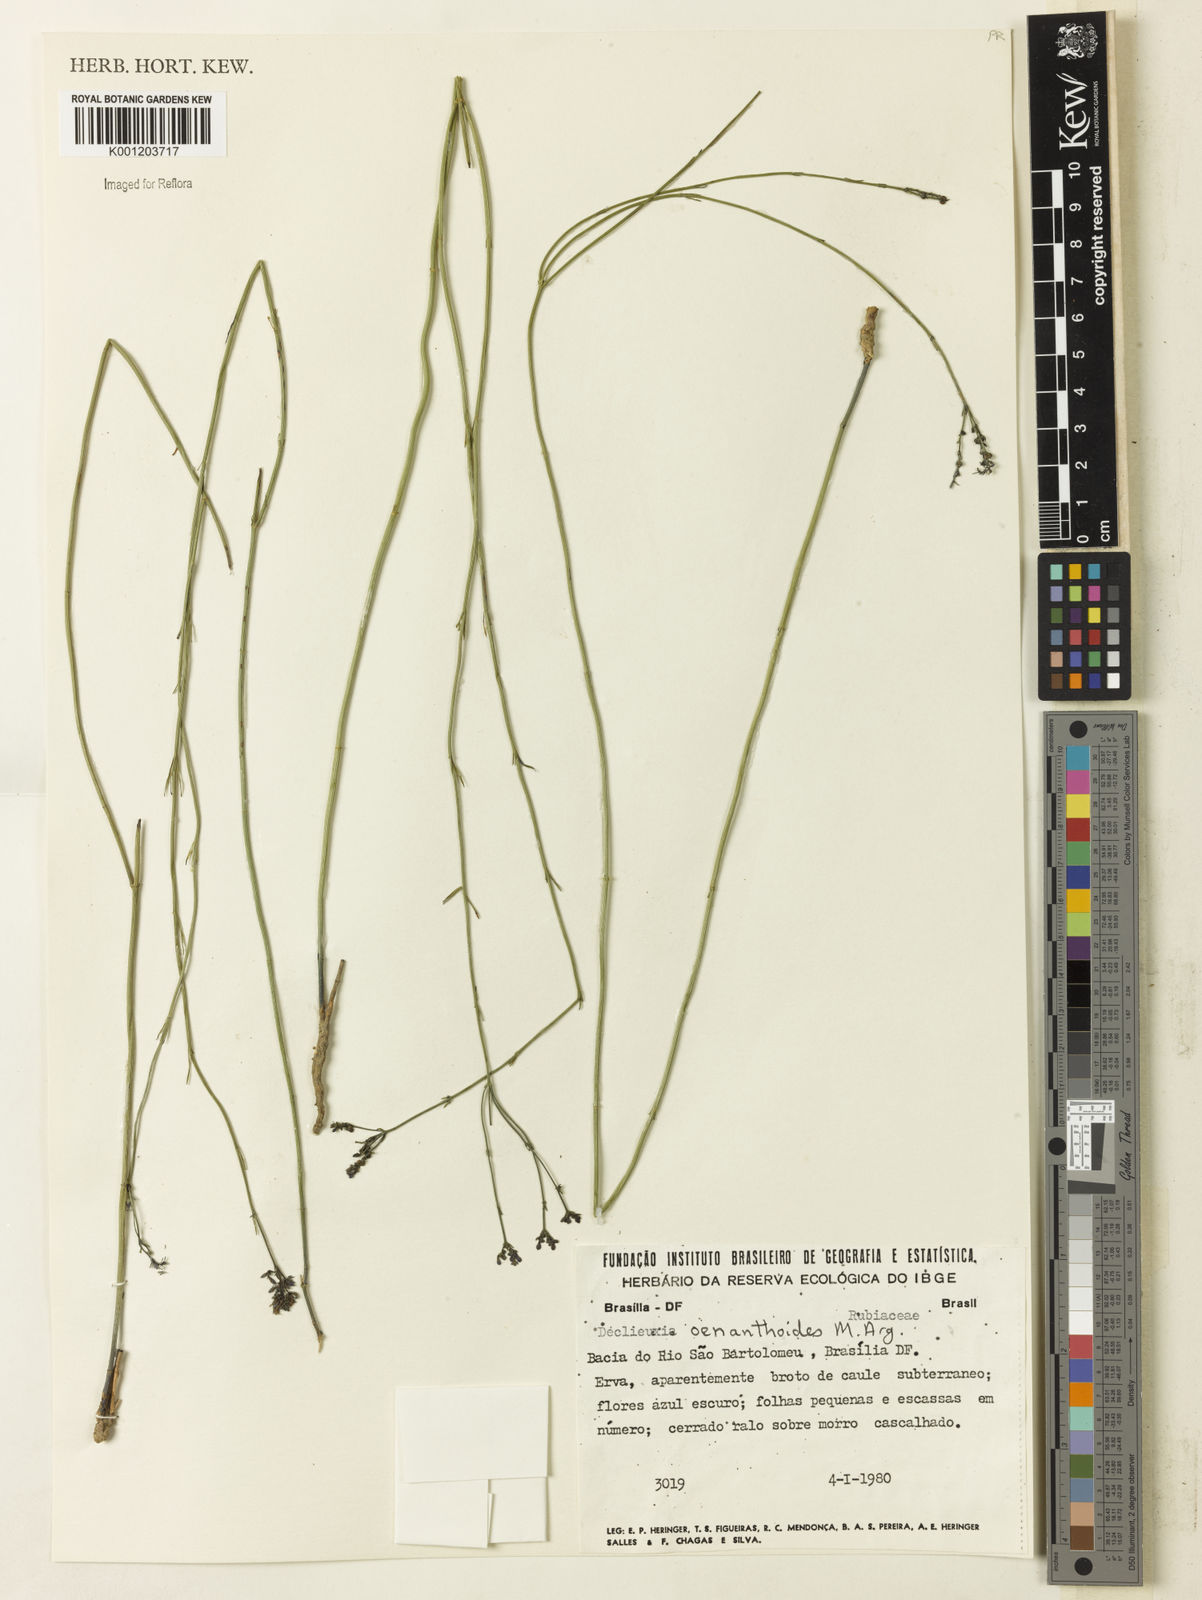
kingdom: Plantae
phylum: Tracheophyta
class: Magnoliopsida
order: Gentianales
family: Rubiaceae
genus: Declieuxia
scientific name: Declieuxia
